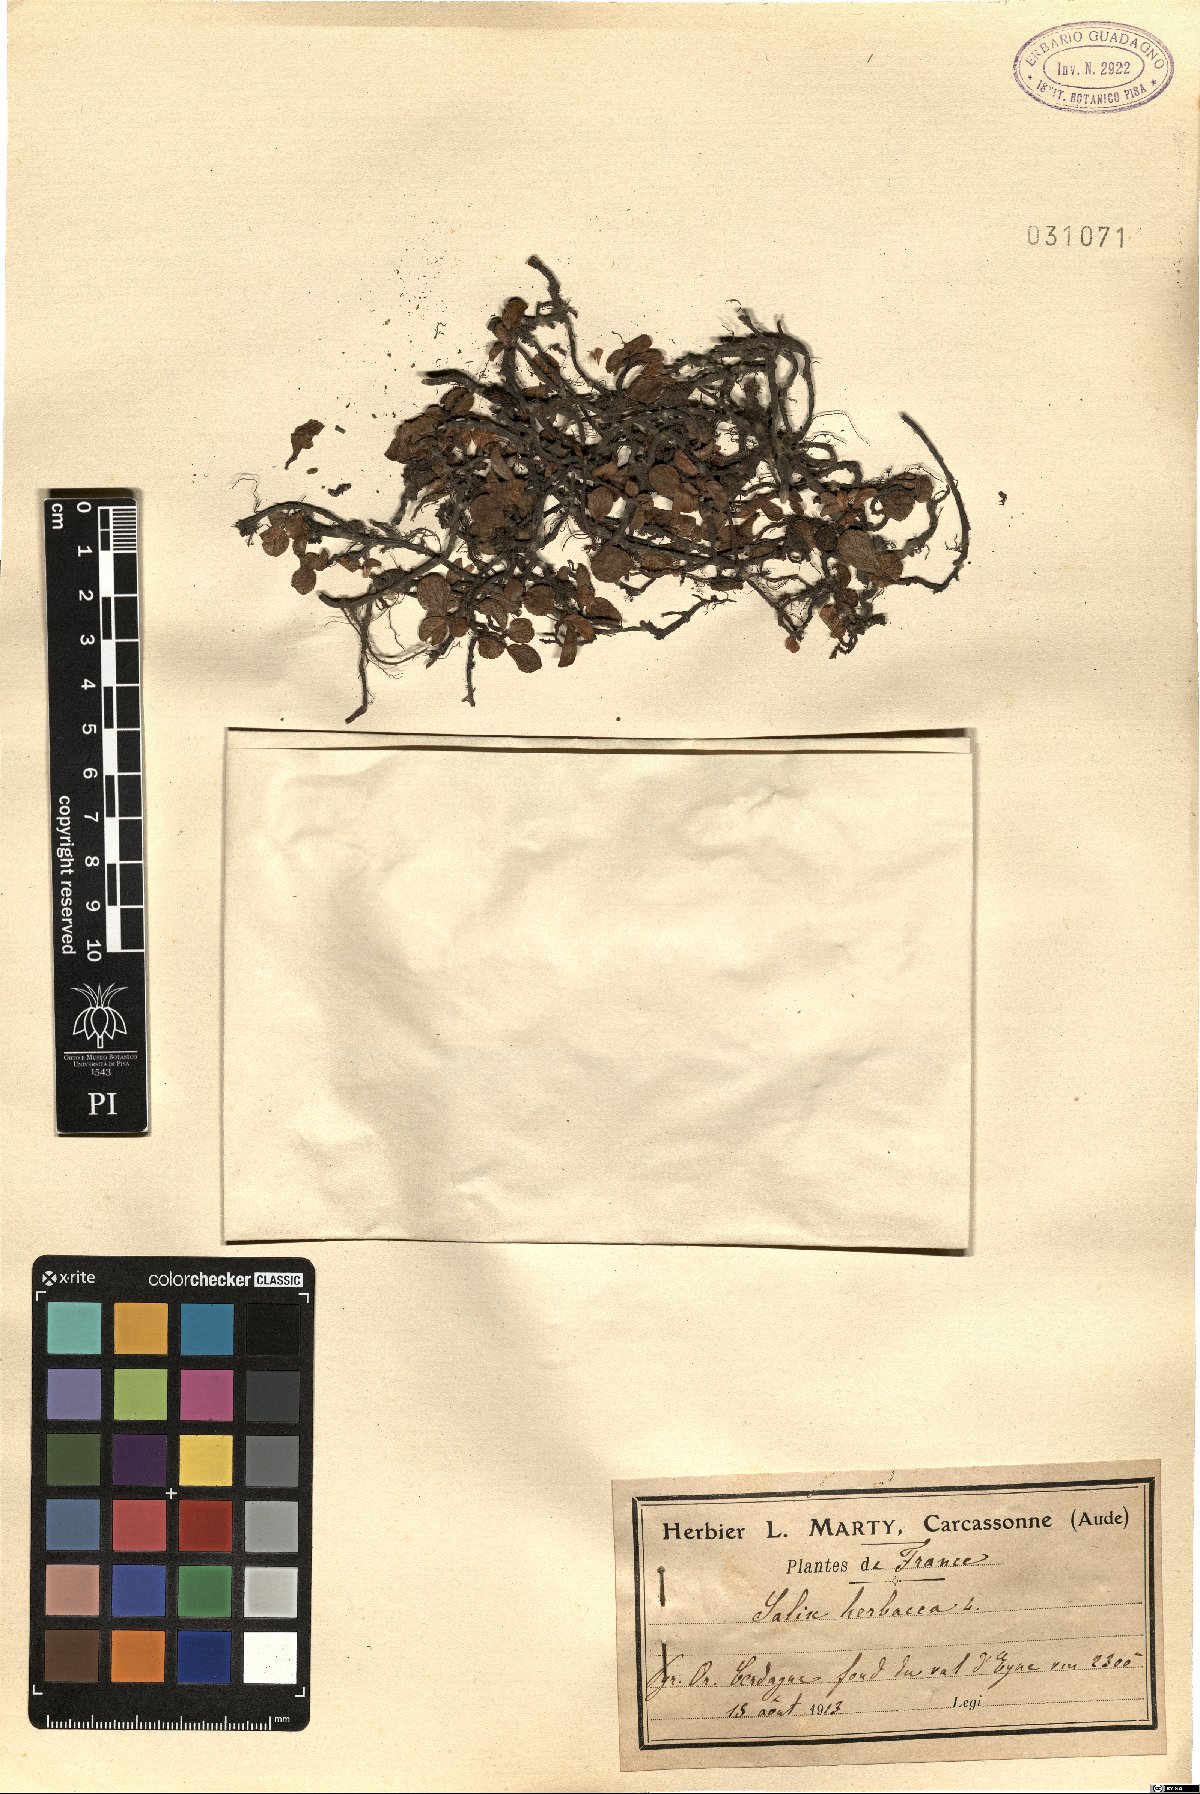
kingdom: Plantae
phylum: Tracheophyta
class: Magnoliopsida
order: Malpighiales
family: Salicaceae
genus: Salix
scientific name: Salix herbacea
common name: Dwarf willow
